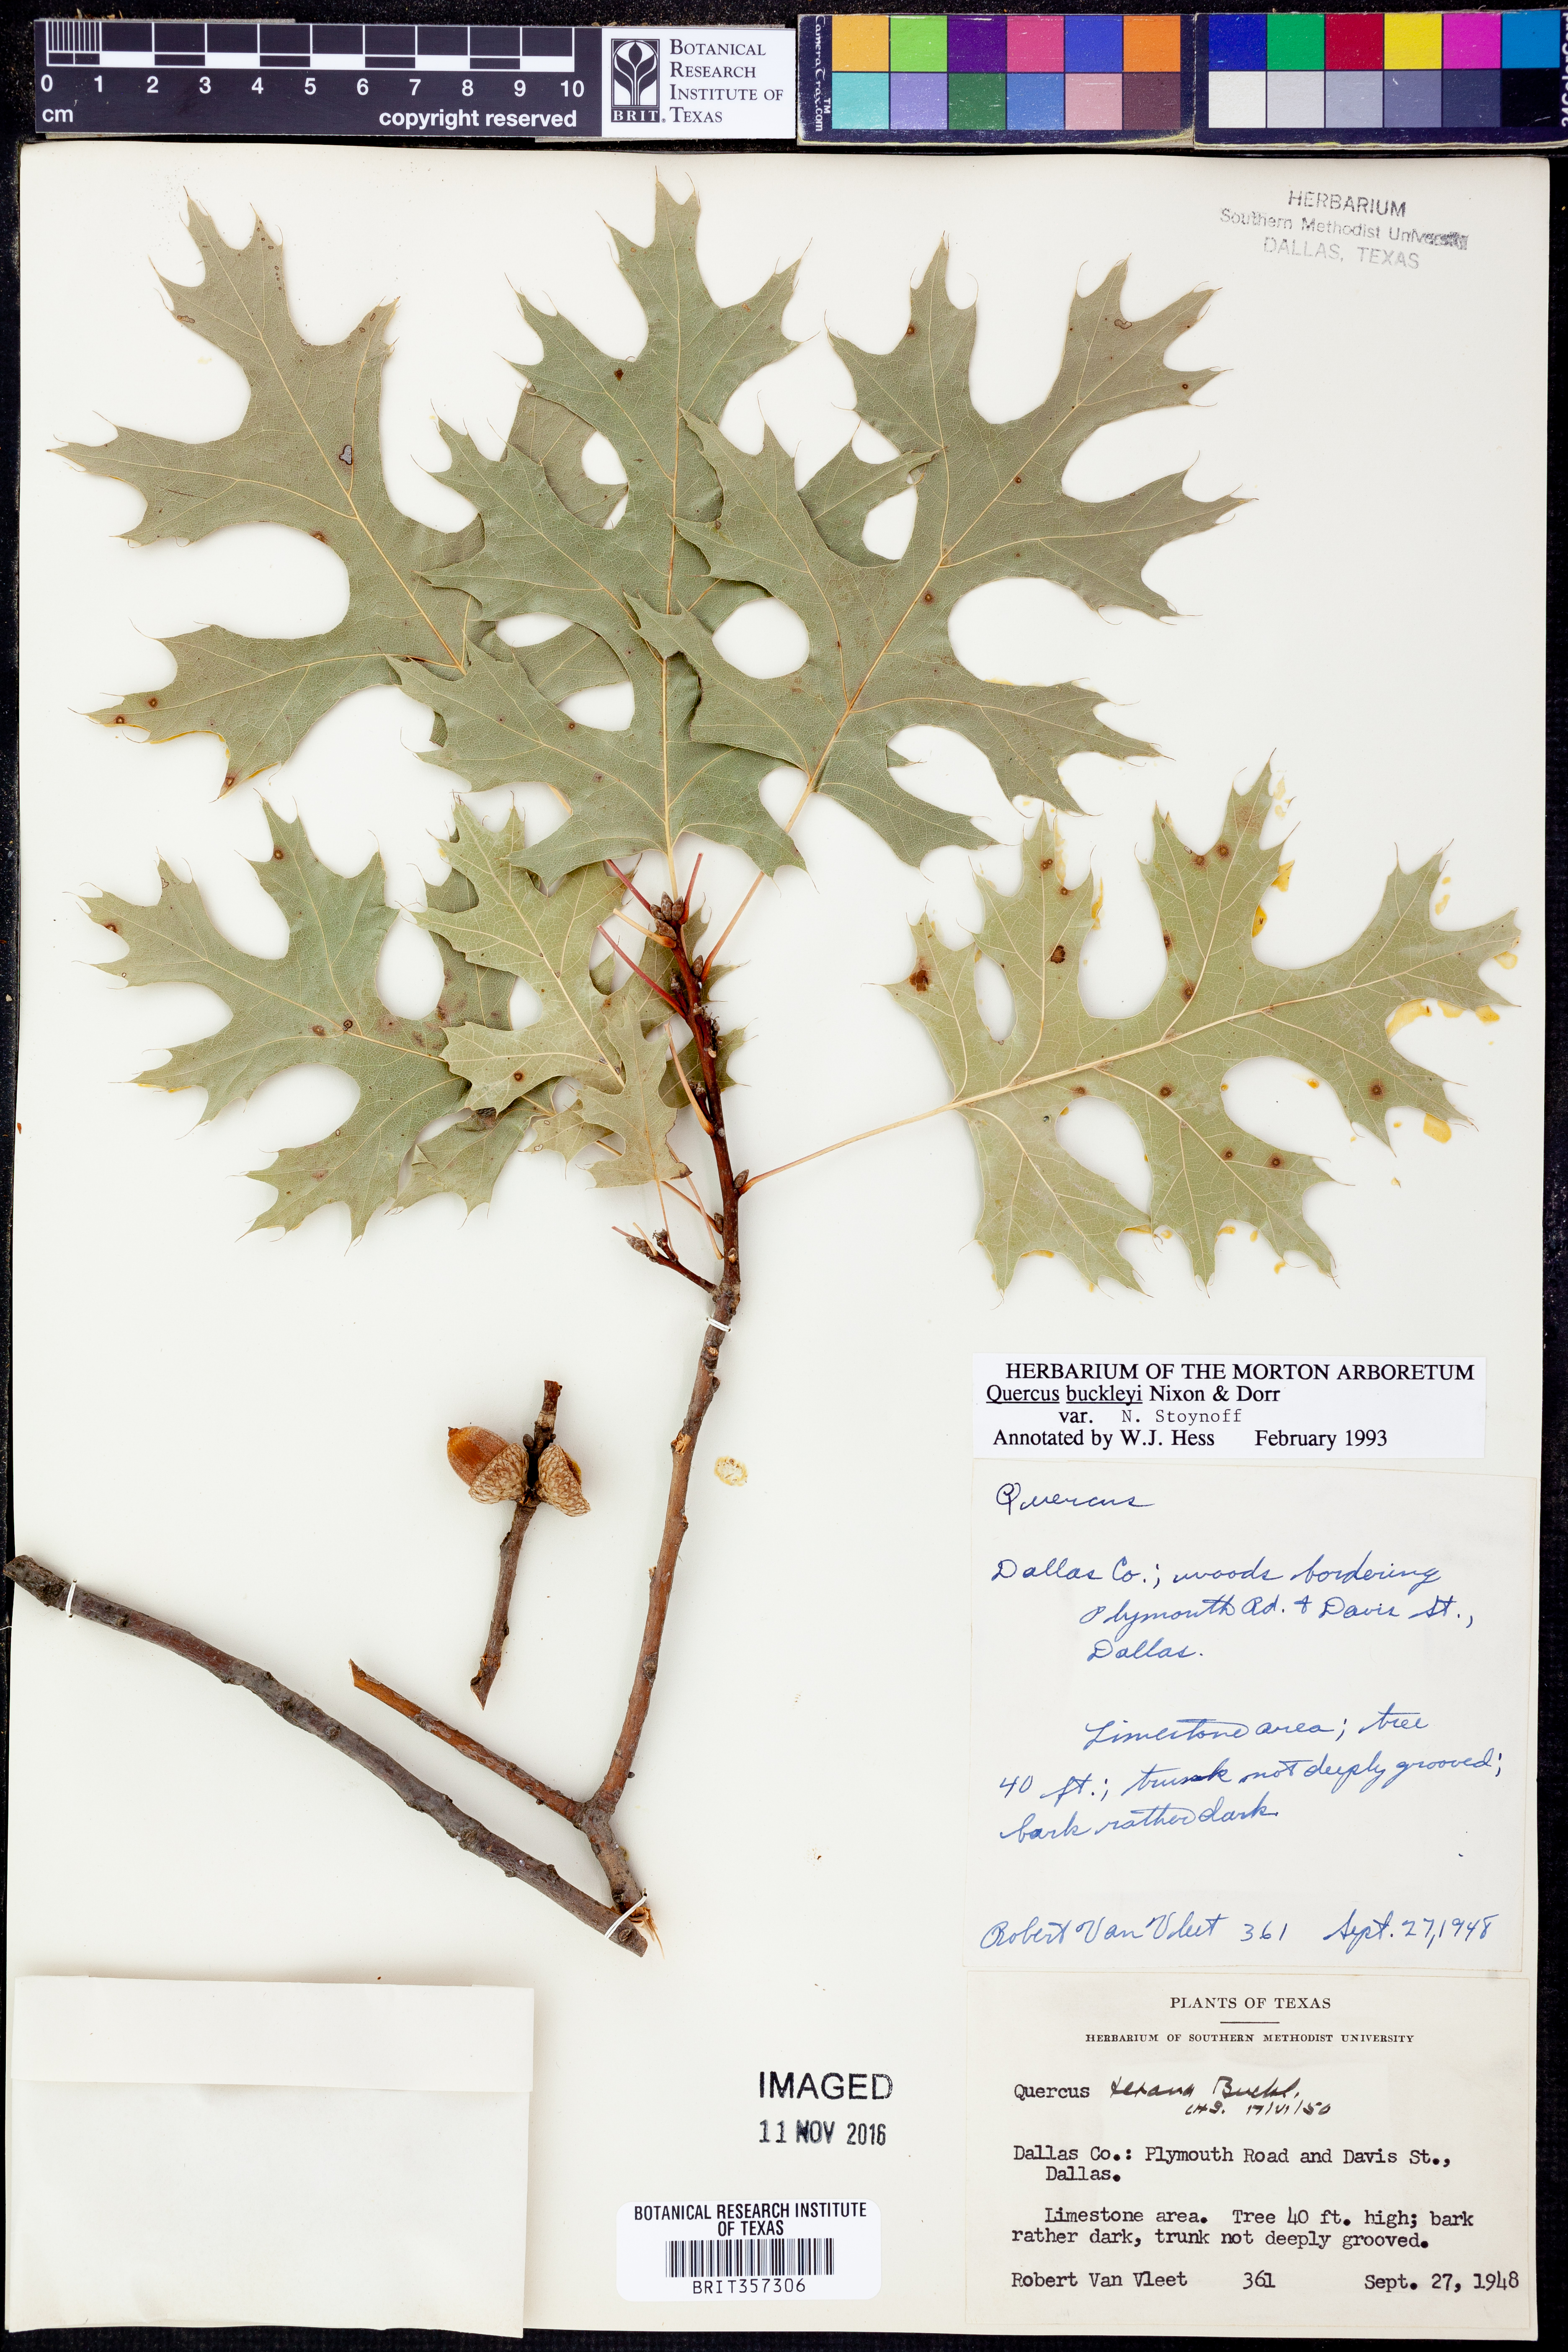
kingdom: Plantae
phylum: Tracheophyta
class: Magnoliopsida
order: Fagales
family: Fagaceae
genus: Quercus
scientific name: Quercus buckleyi
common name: Buckley oak
